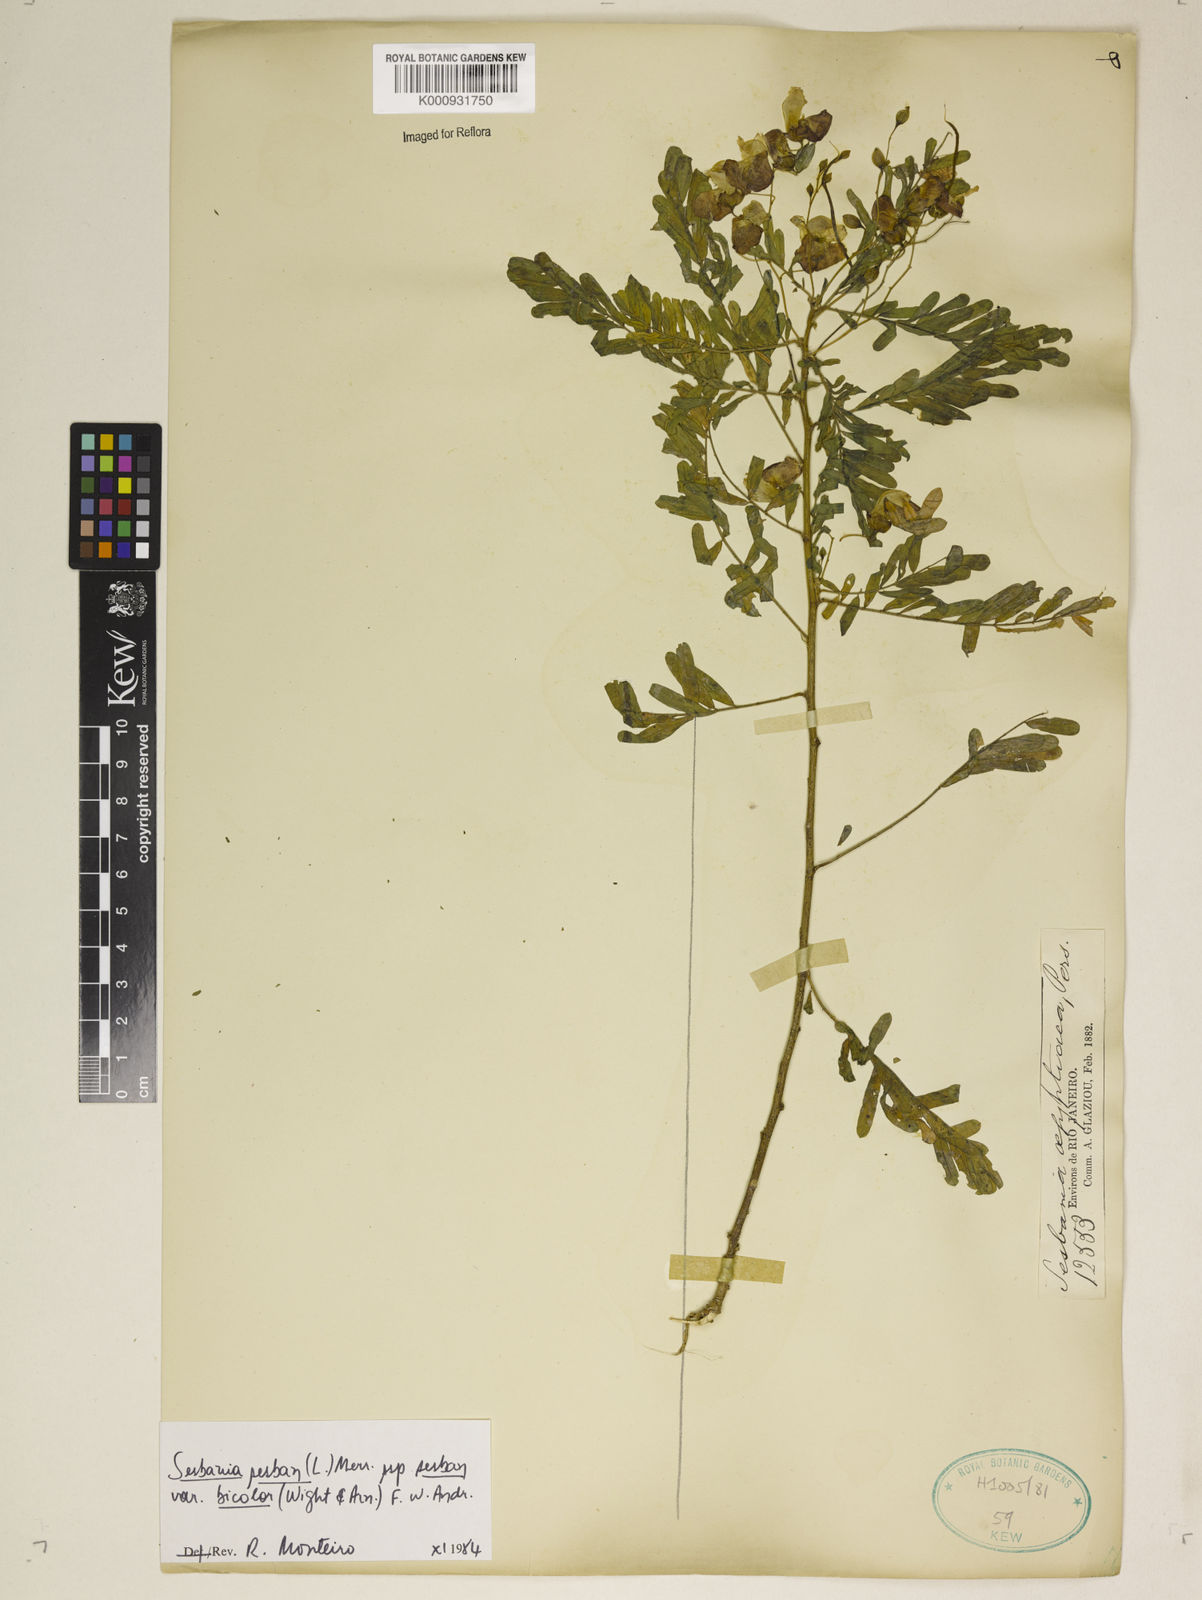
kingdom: Plantae
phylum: Tracheophyta
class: Magnoliopsida
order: Fabales
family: Fabaceae
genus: Sesbania
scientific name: Sesbania
